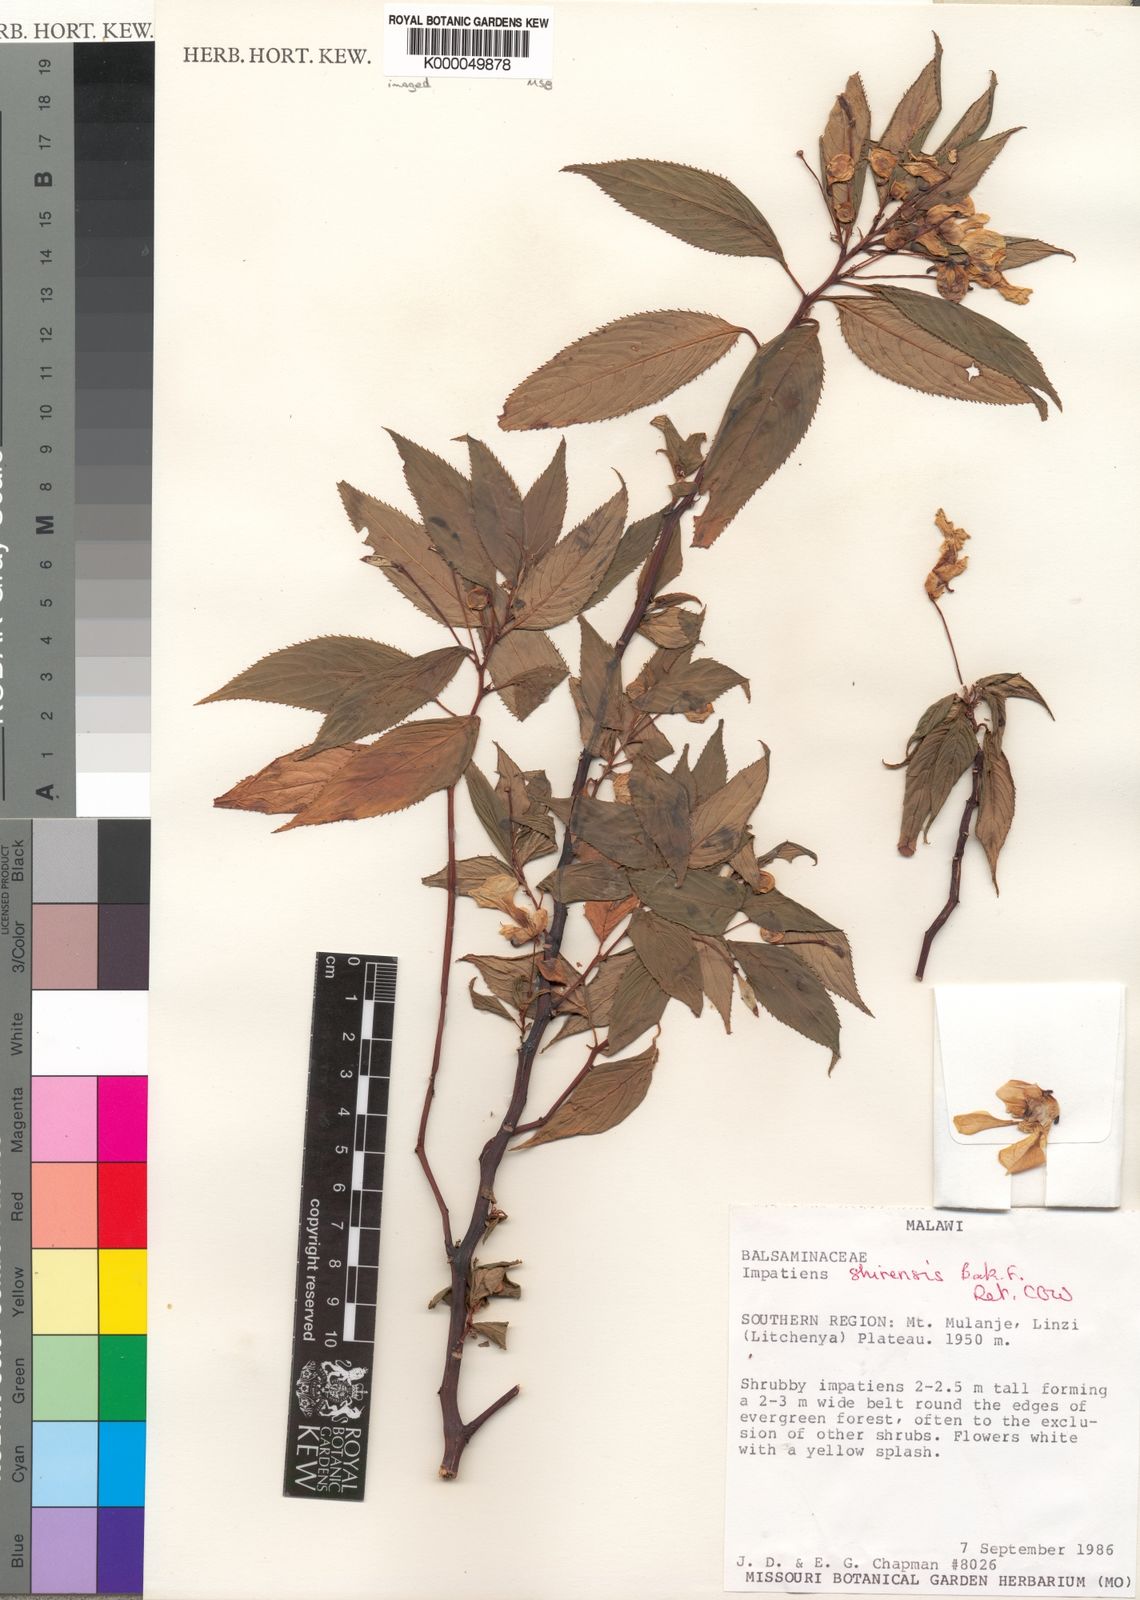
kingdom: Plantae
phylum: Tracheophyta
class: Magnoliopsida
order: Ericales
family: Balsaminaceae
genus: Impatiens
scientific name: Impatiens shirensis
